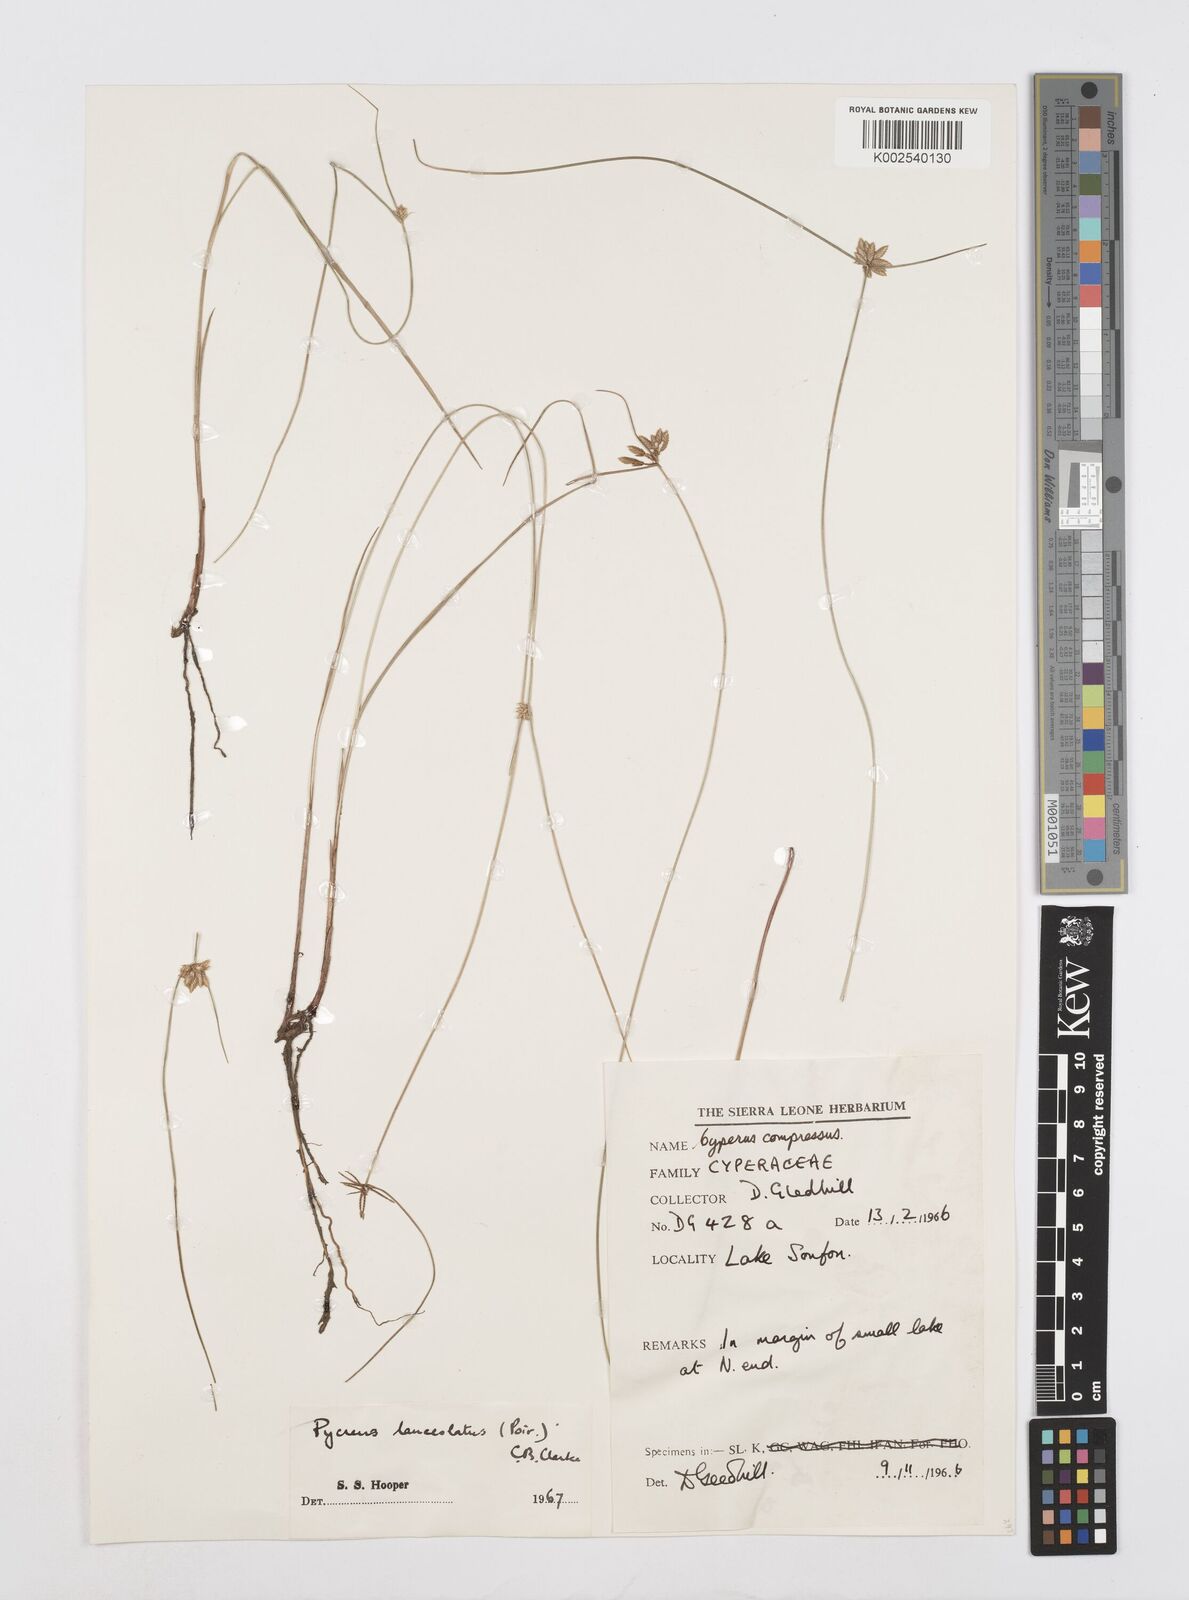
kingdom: Plantae
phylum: Tracheophyta
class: Liliopsida
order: Poales
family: Cyperaceae
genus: Cyperus
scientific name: Cyperus
